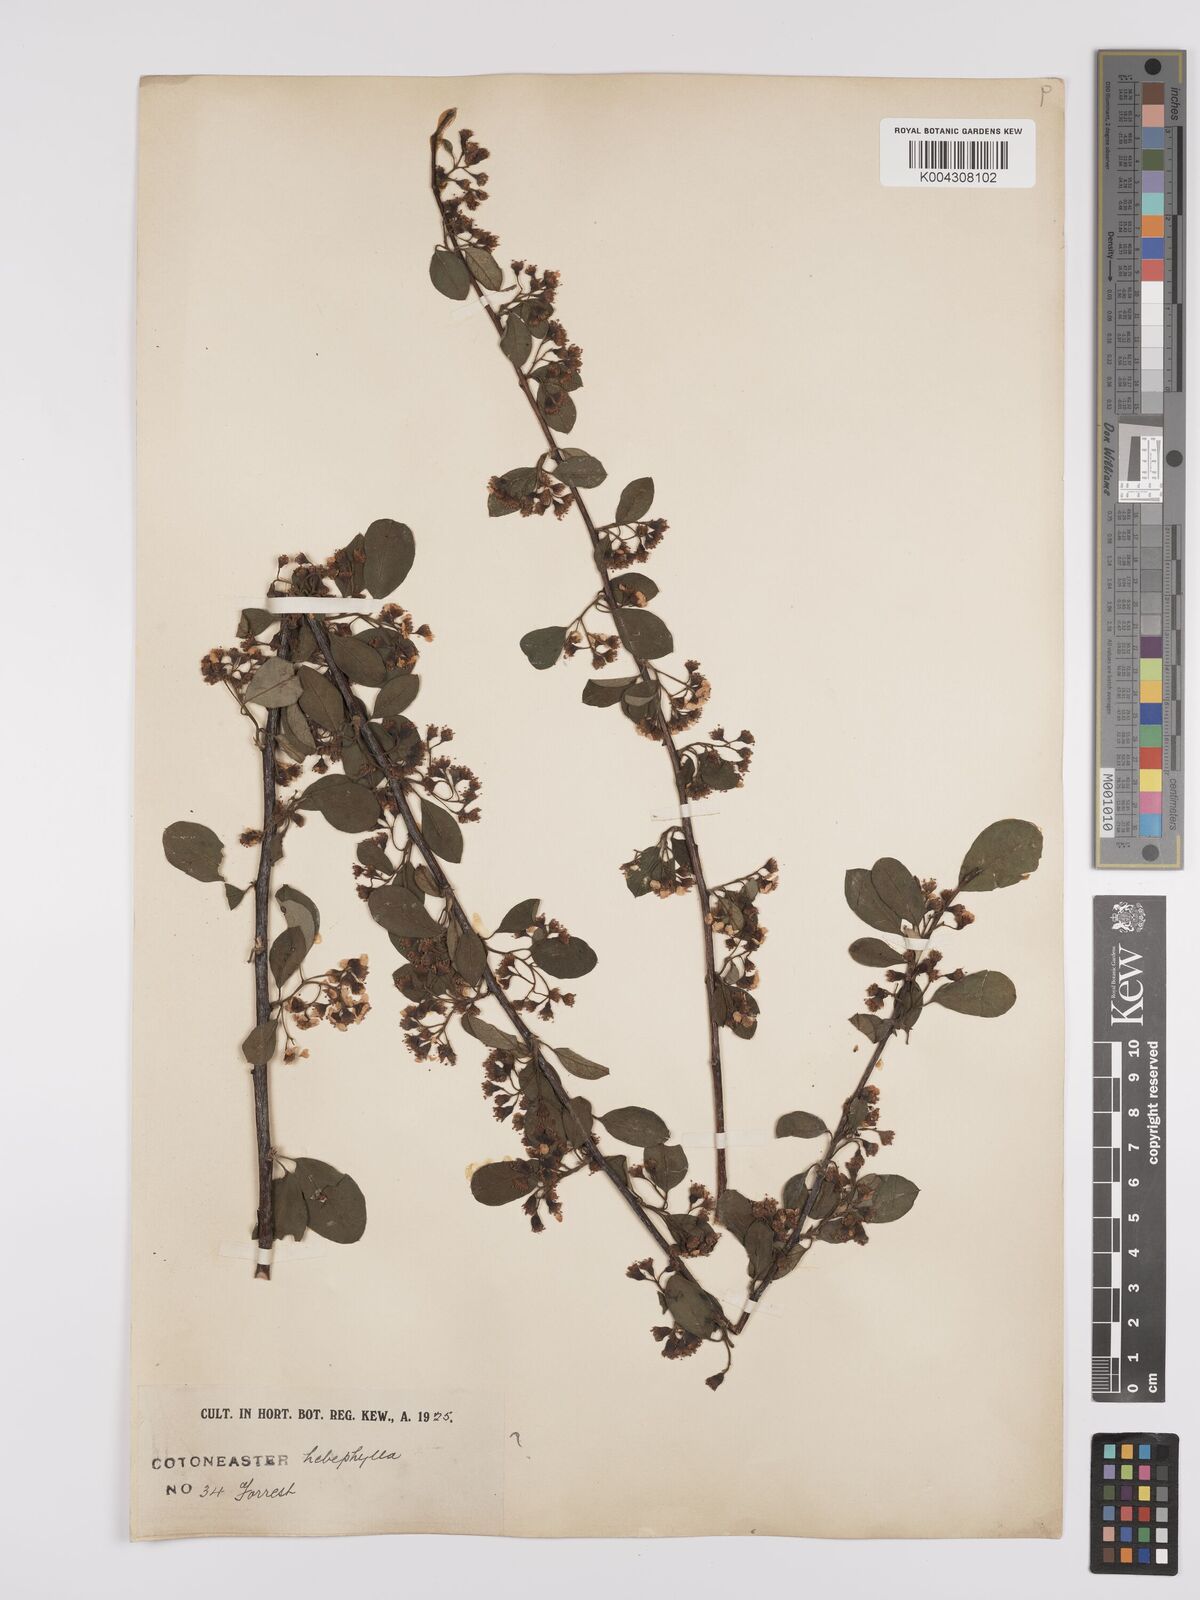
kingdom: Plantae
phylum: Tracheophyta
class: Magnoliopsida
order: Rosales
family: Rosaceae
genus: Cotoneaster
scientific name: Cotoneaster hebephyllus
